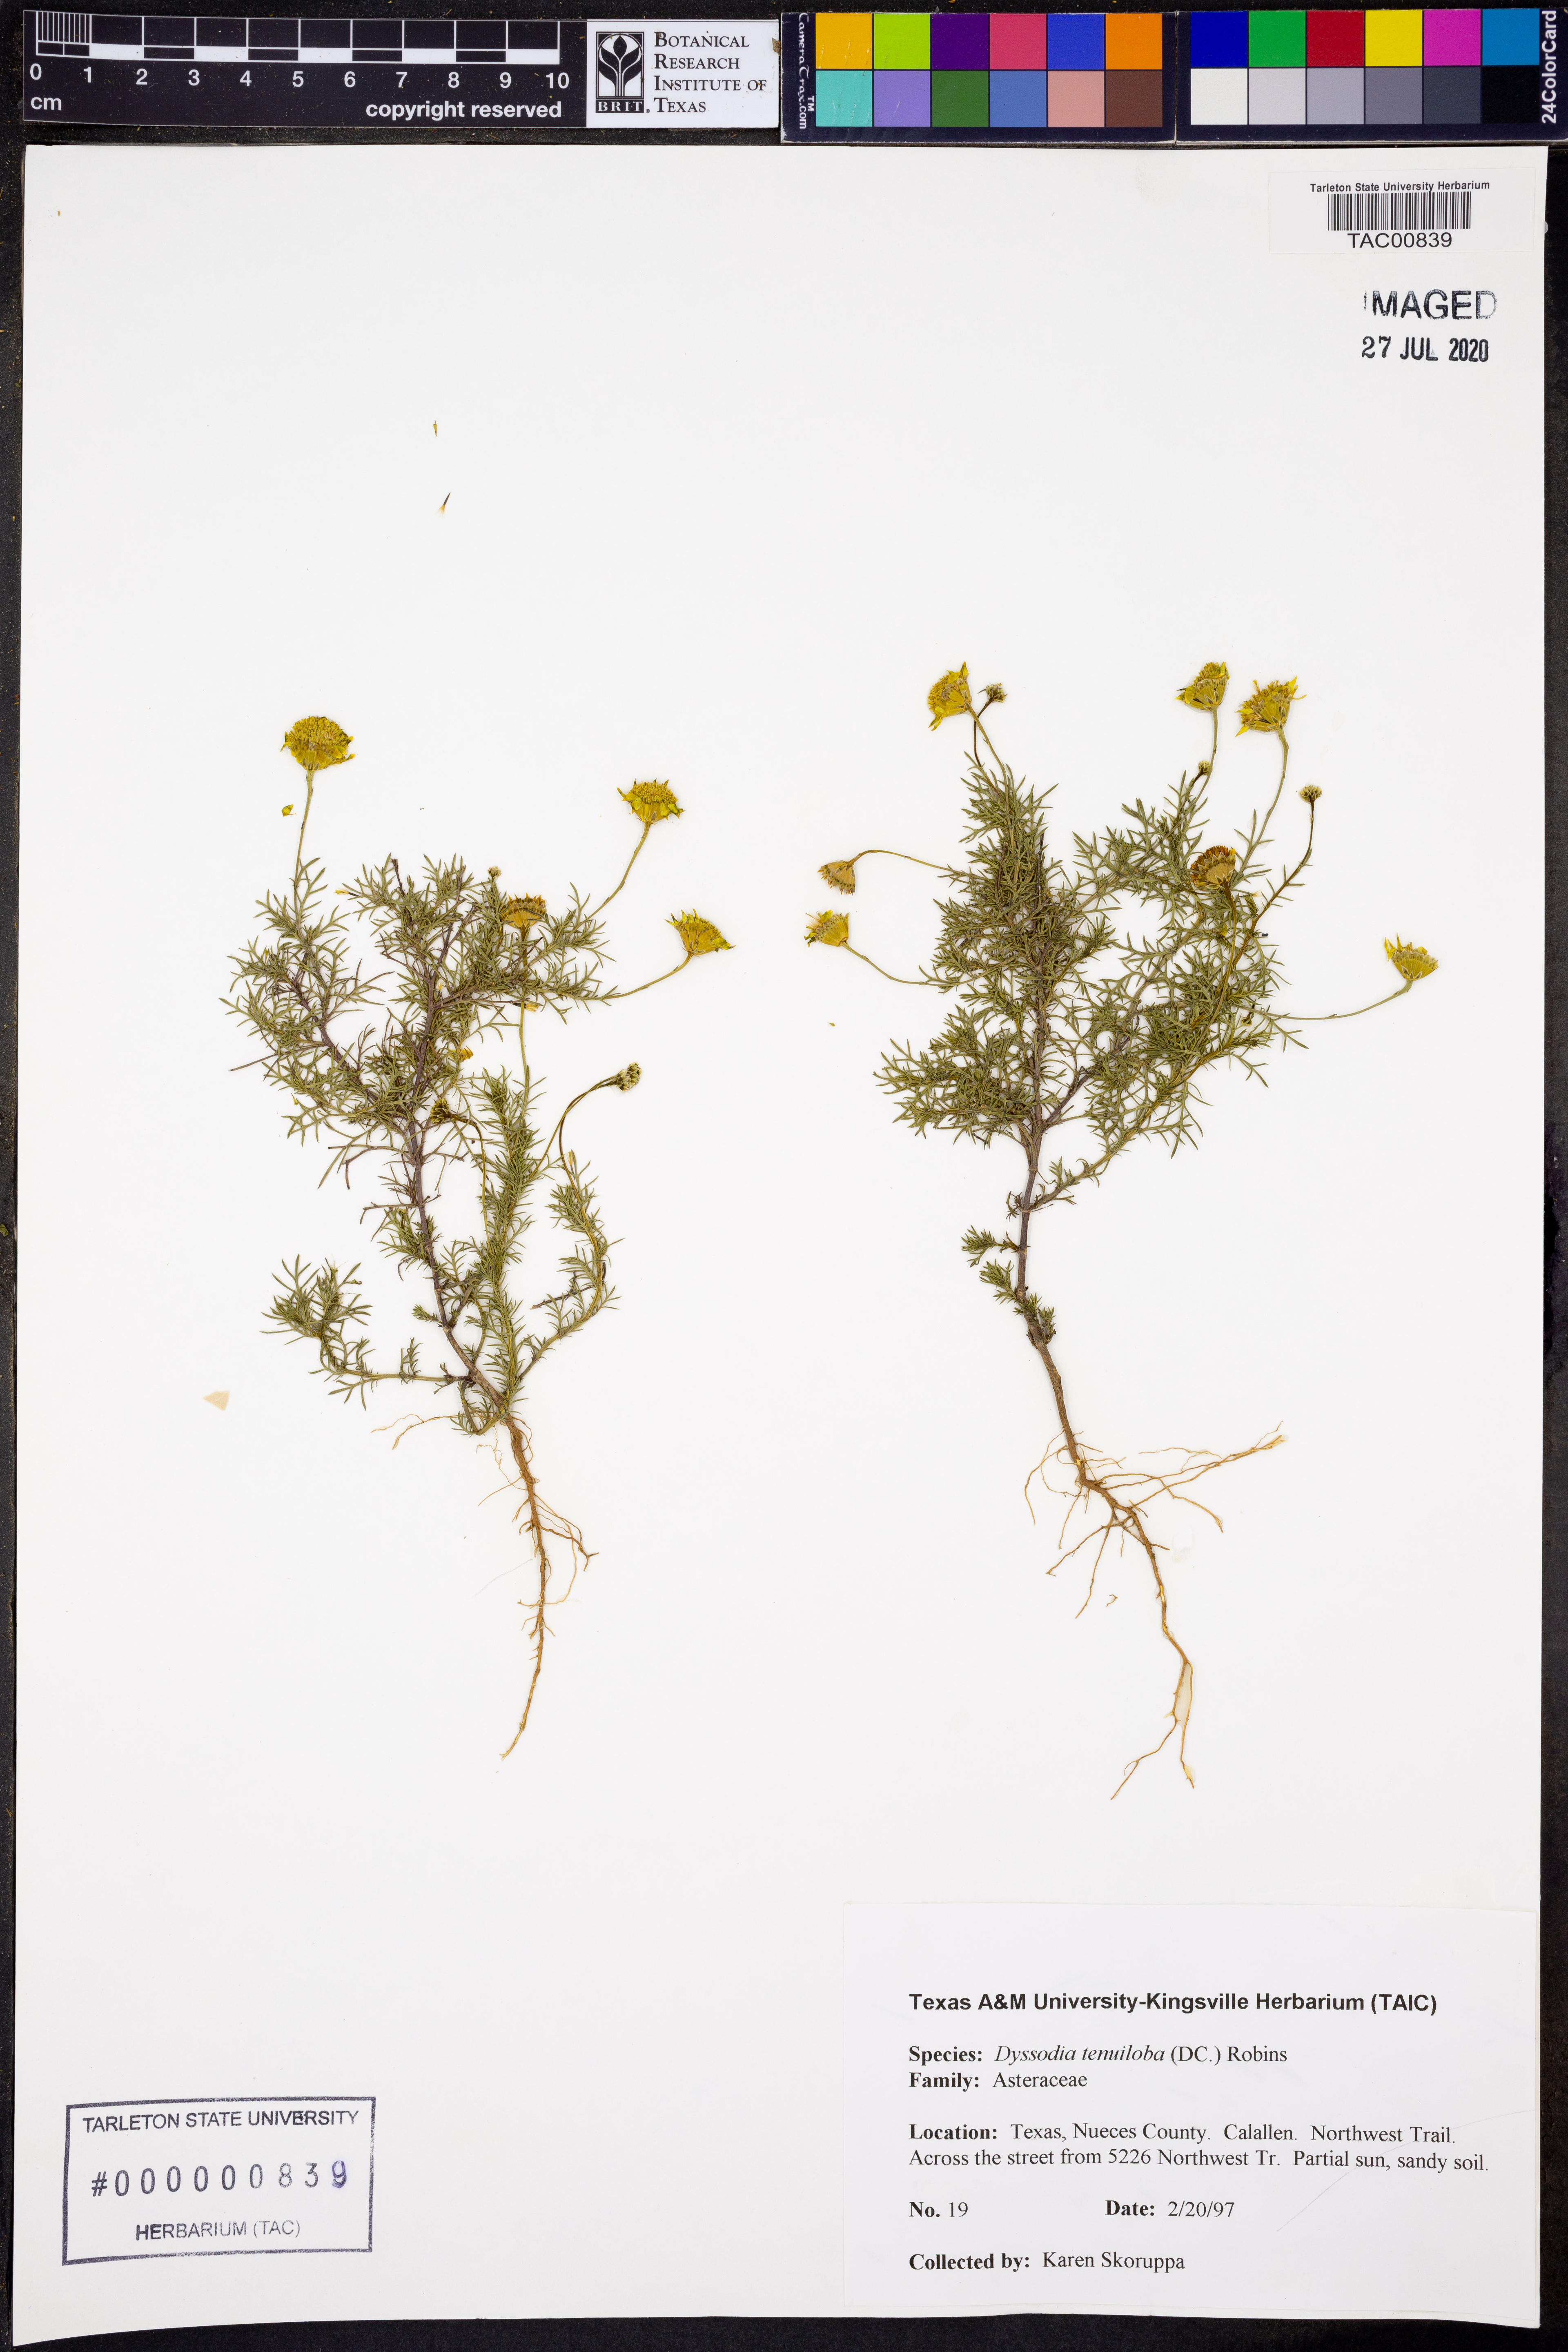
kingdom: Plantae
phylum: Tracheophyta
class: Magnoliopsida
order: Asterales
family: Asteraceae
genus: Thymophylla
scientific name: Thymophylla tenuiloba
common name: Dahlberg's daisy
